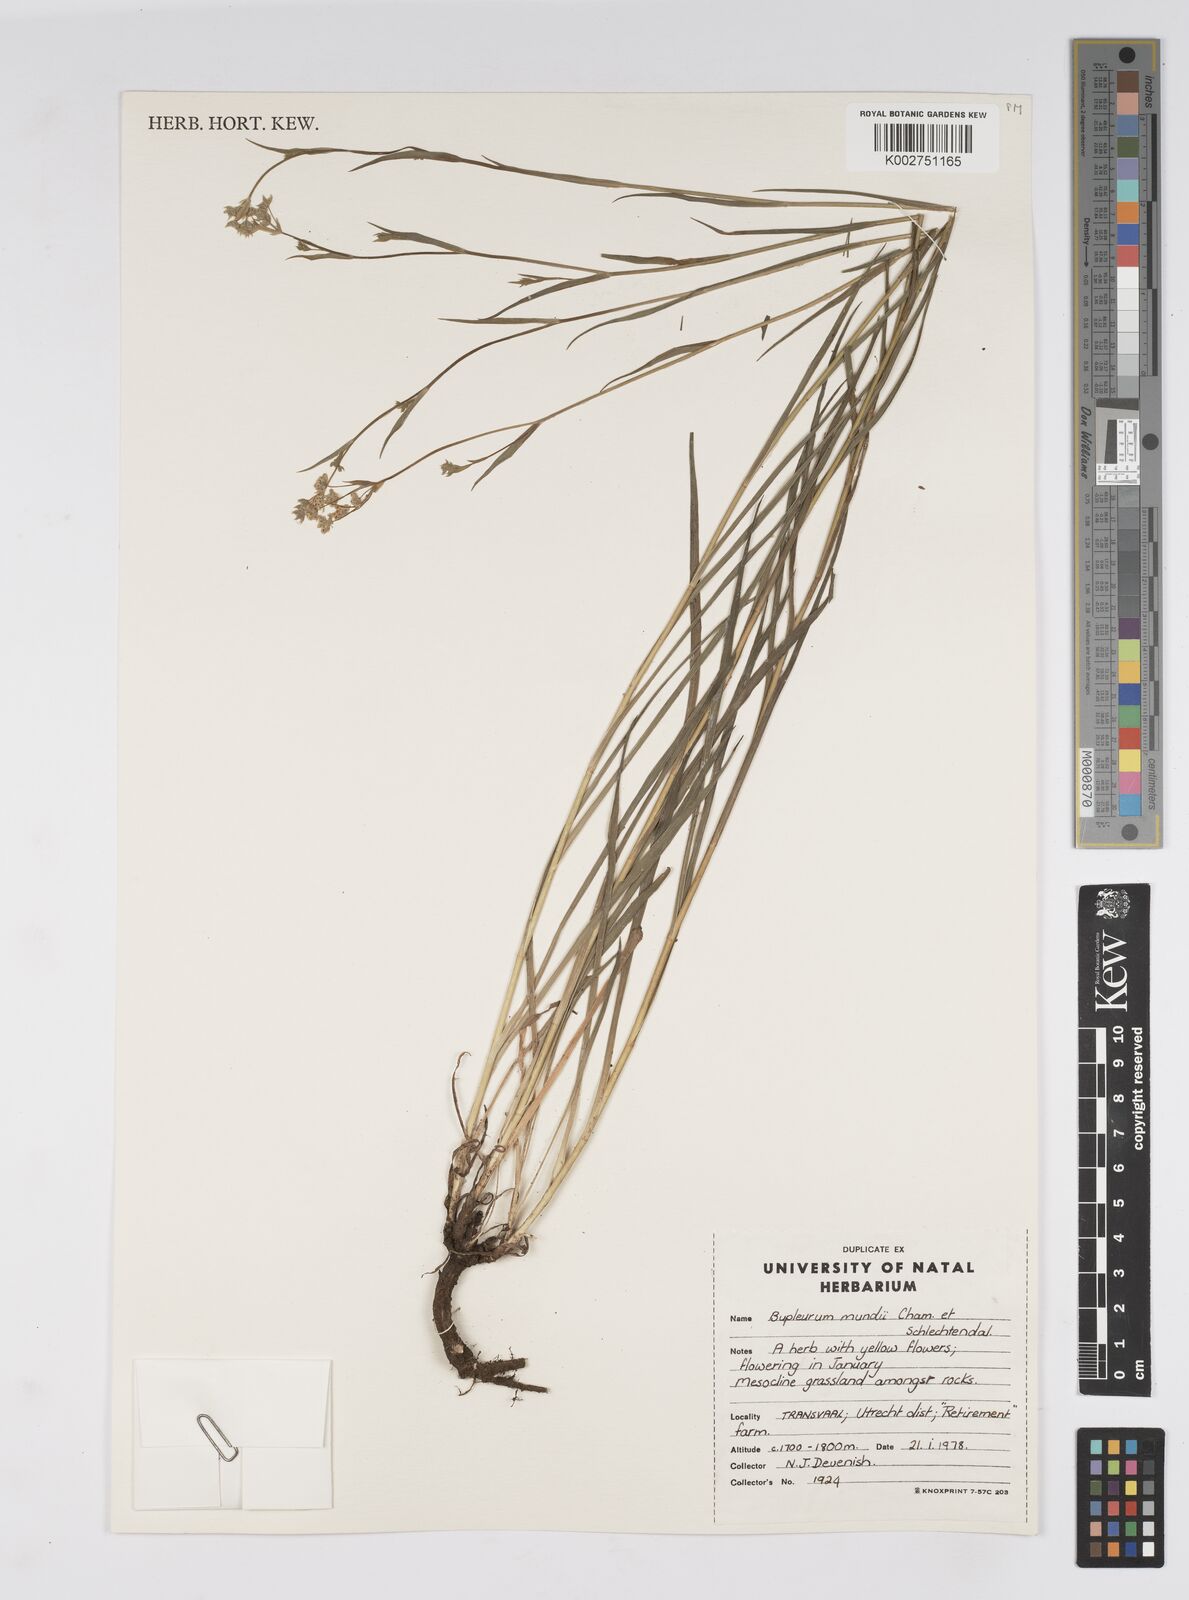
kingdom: Plantae
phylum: Tracheophyta
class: Magnoliopsida
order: Apiales
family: Apiaceae
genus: Bupleurum
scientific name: Bupleurum mundii
